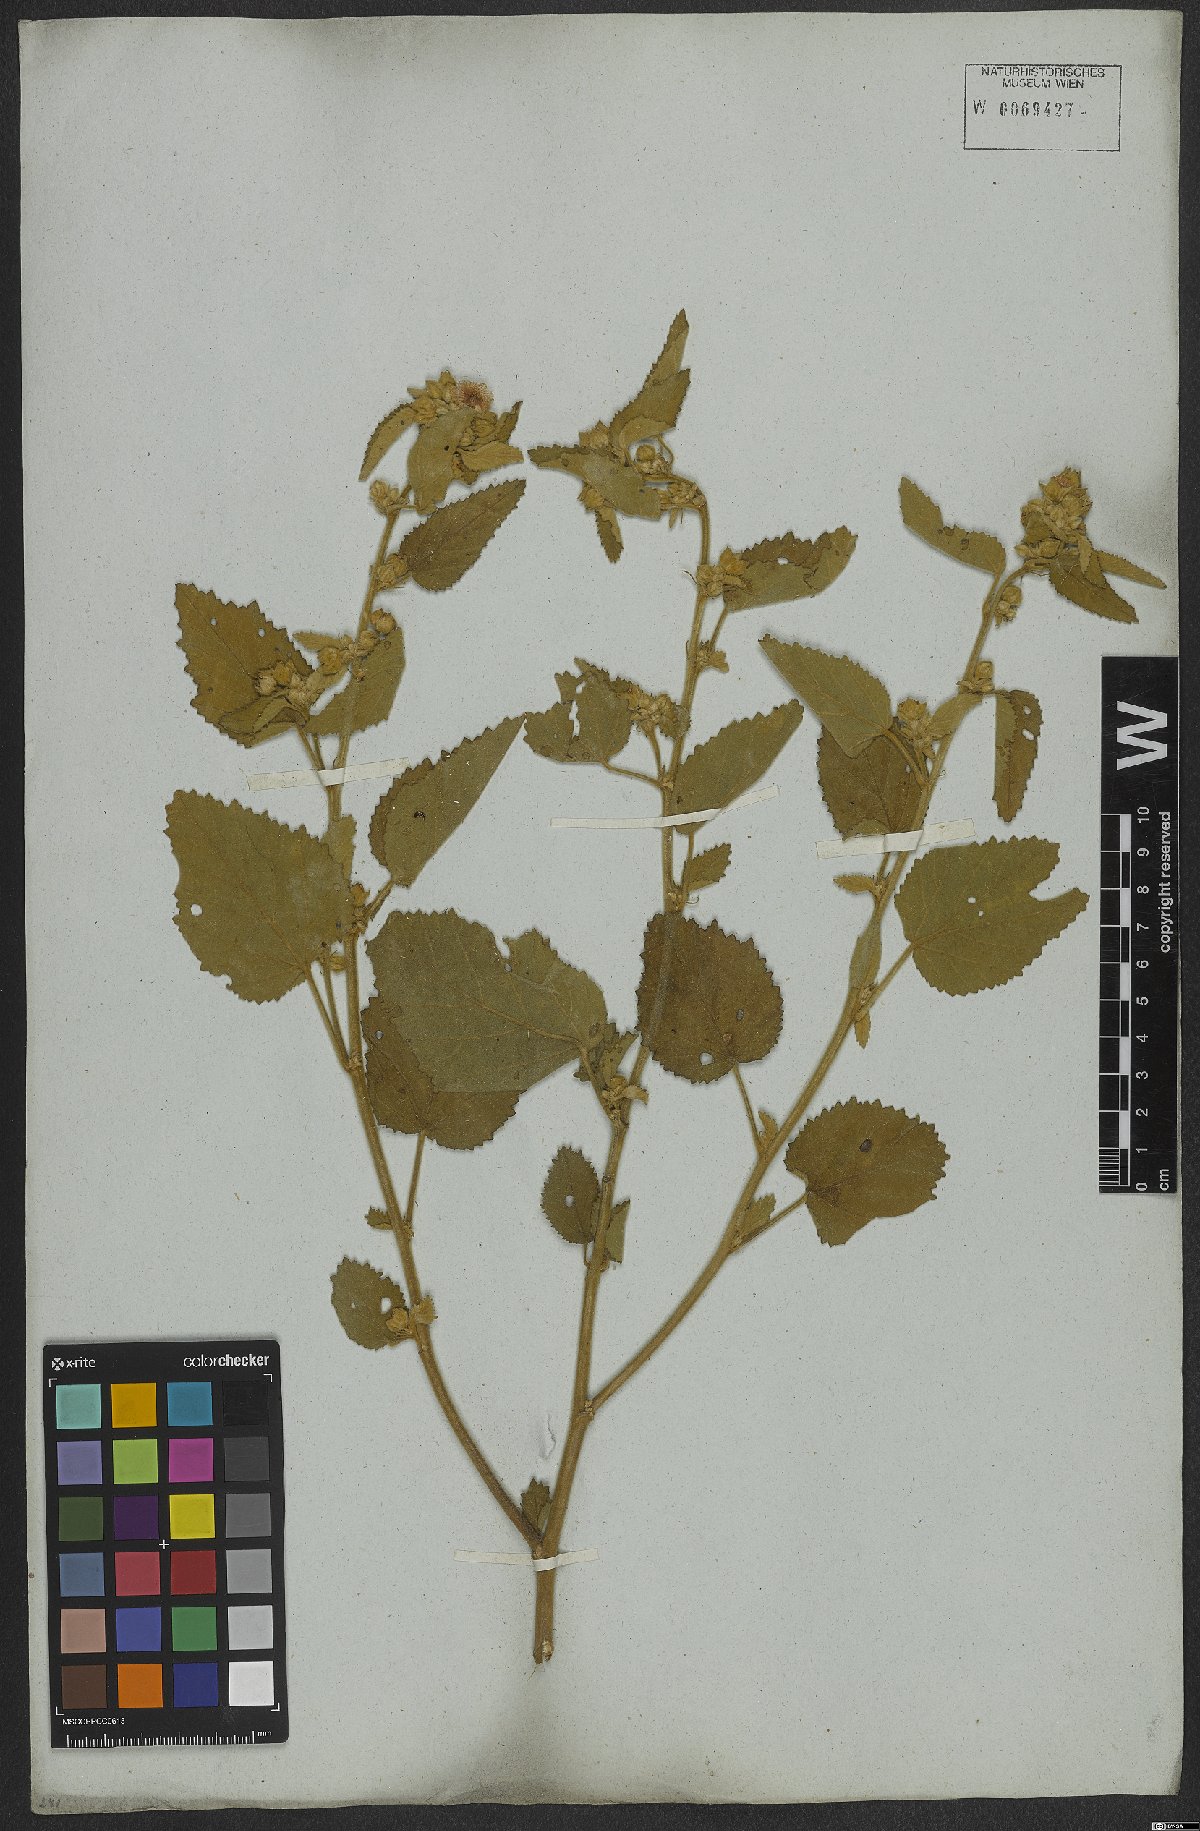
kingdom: Plantae
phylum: Tracheophyta
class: Magnoliopsida
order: Malvales
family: Malvaceae
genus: Sida
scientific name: Sida cordifolia
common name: Ilima
